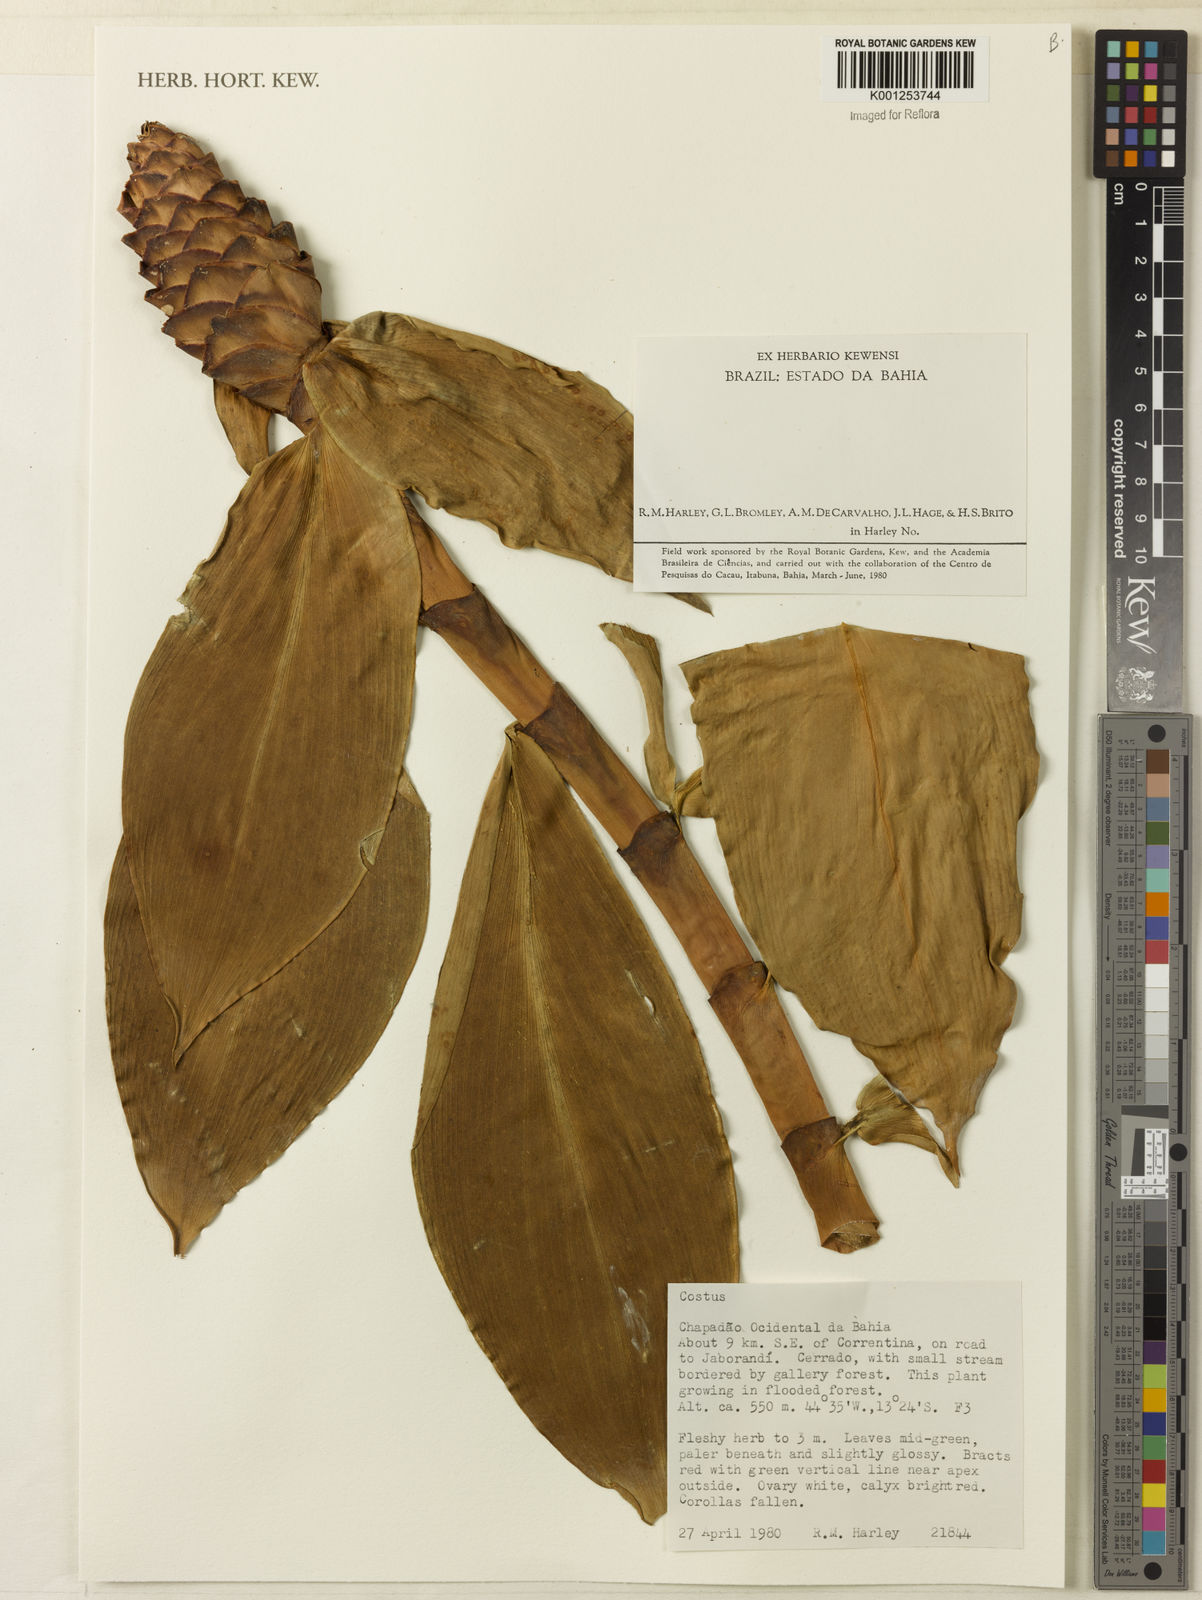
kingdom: Plantae
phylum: Tracheophyta
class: Liliopsida
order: Zingiberales
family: Costaceae
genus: Costus
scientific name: Costus
